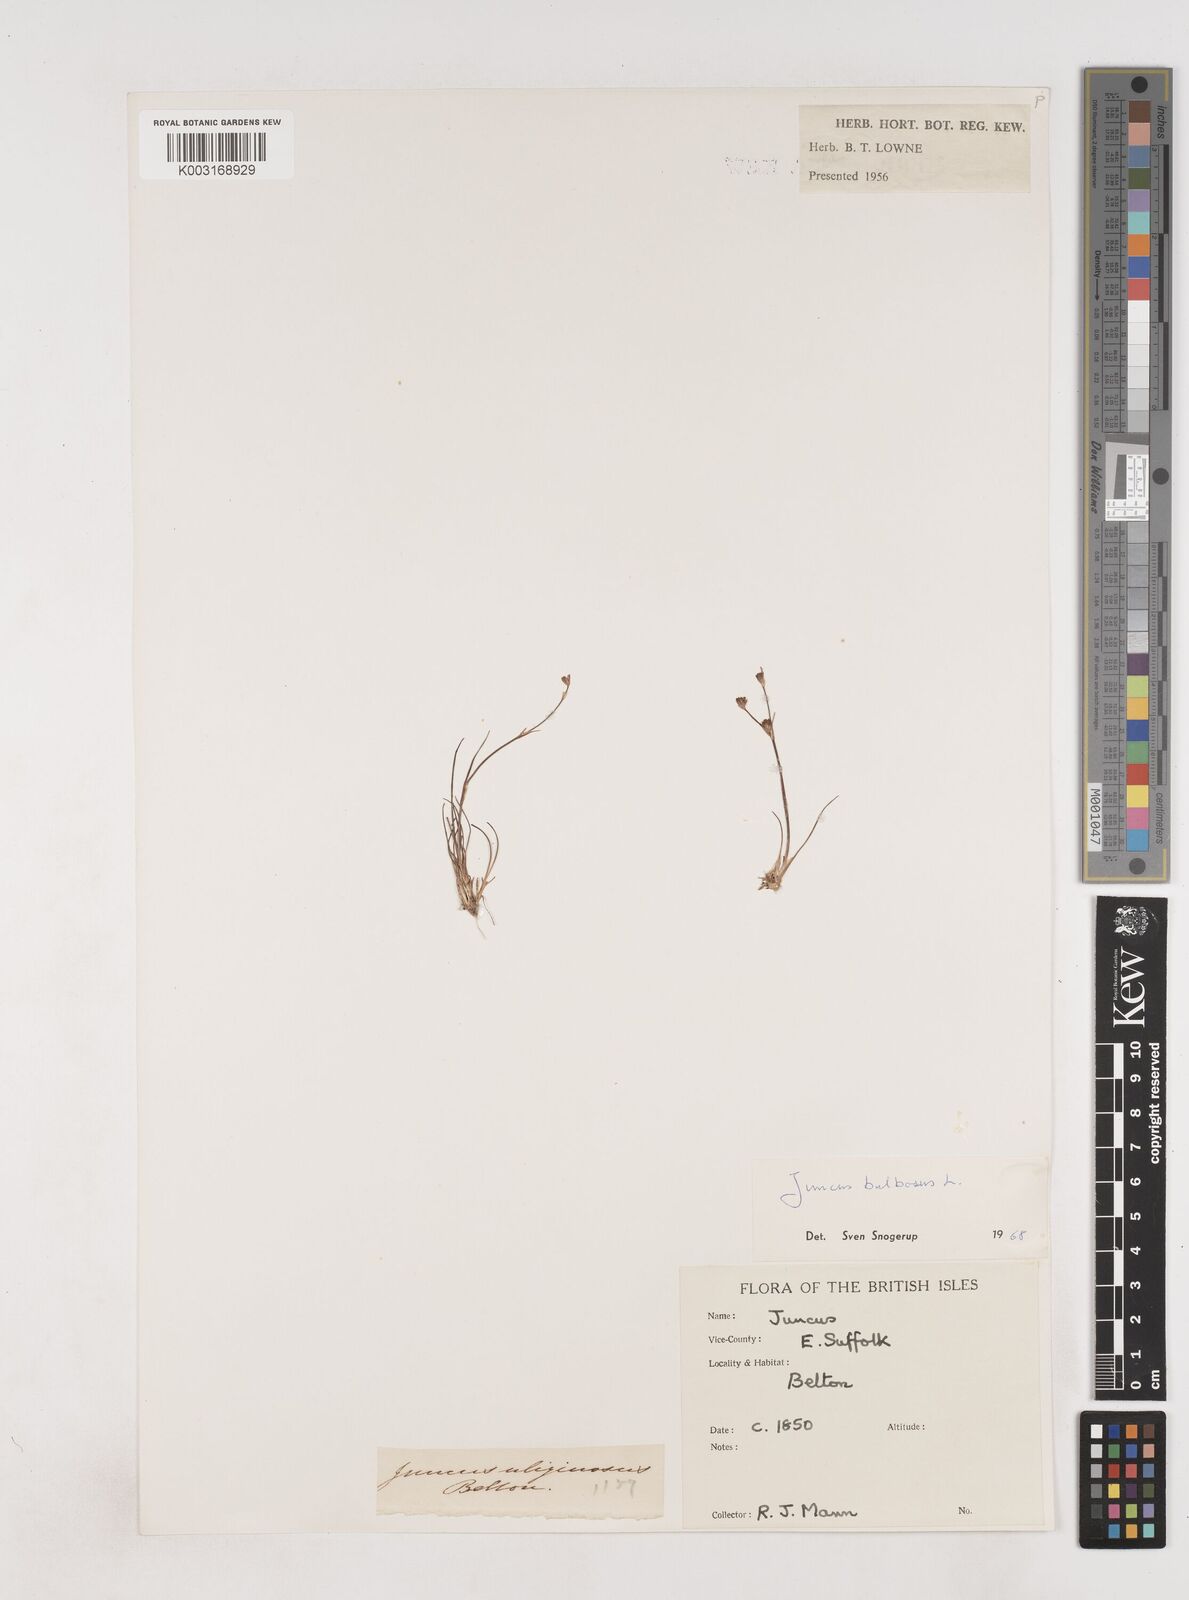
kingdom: Plantae
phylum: Tracheophyta
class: Liliopsida
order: Poales
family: Juncaceae
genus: Juncus
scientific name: Juncus bulbosus
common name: Bulbous rush
